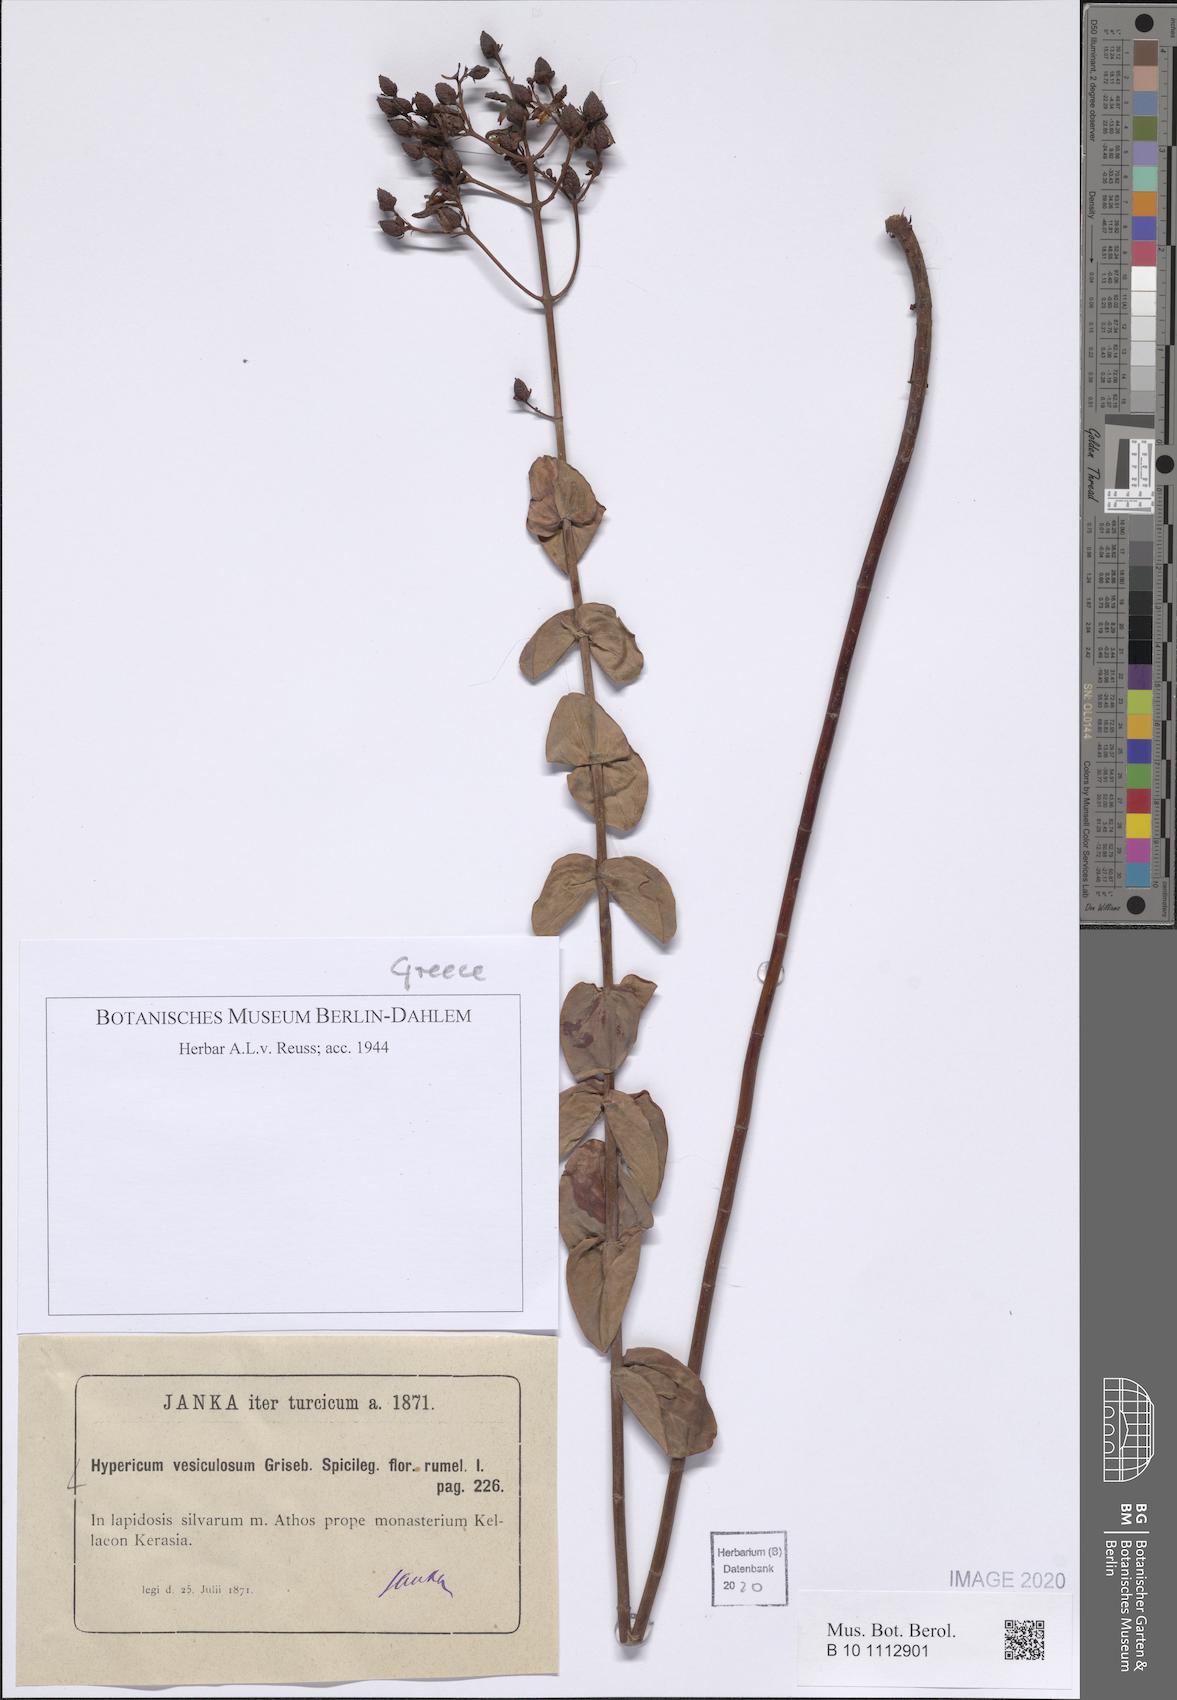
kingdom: Plantae
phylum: Tracheophyta
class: Magnoliopsida
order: Malpighiales
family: Hypericaceae
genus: Hypericum
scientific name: Hypericum vesiculosum
